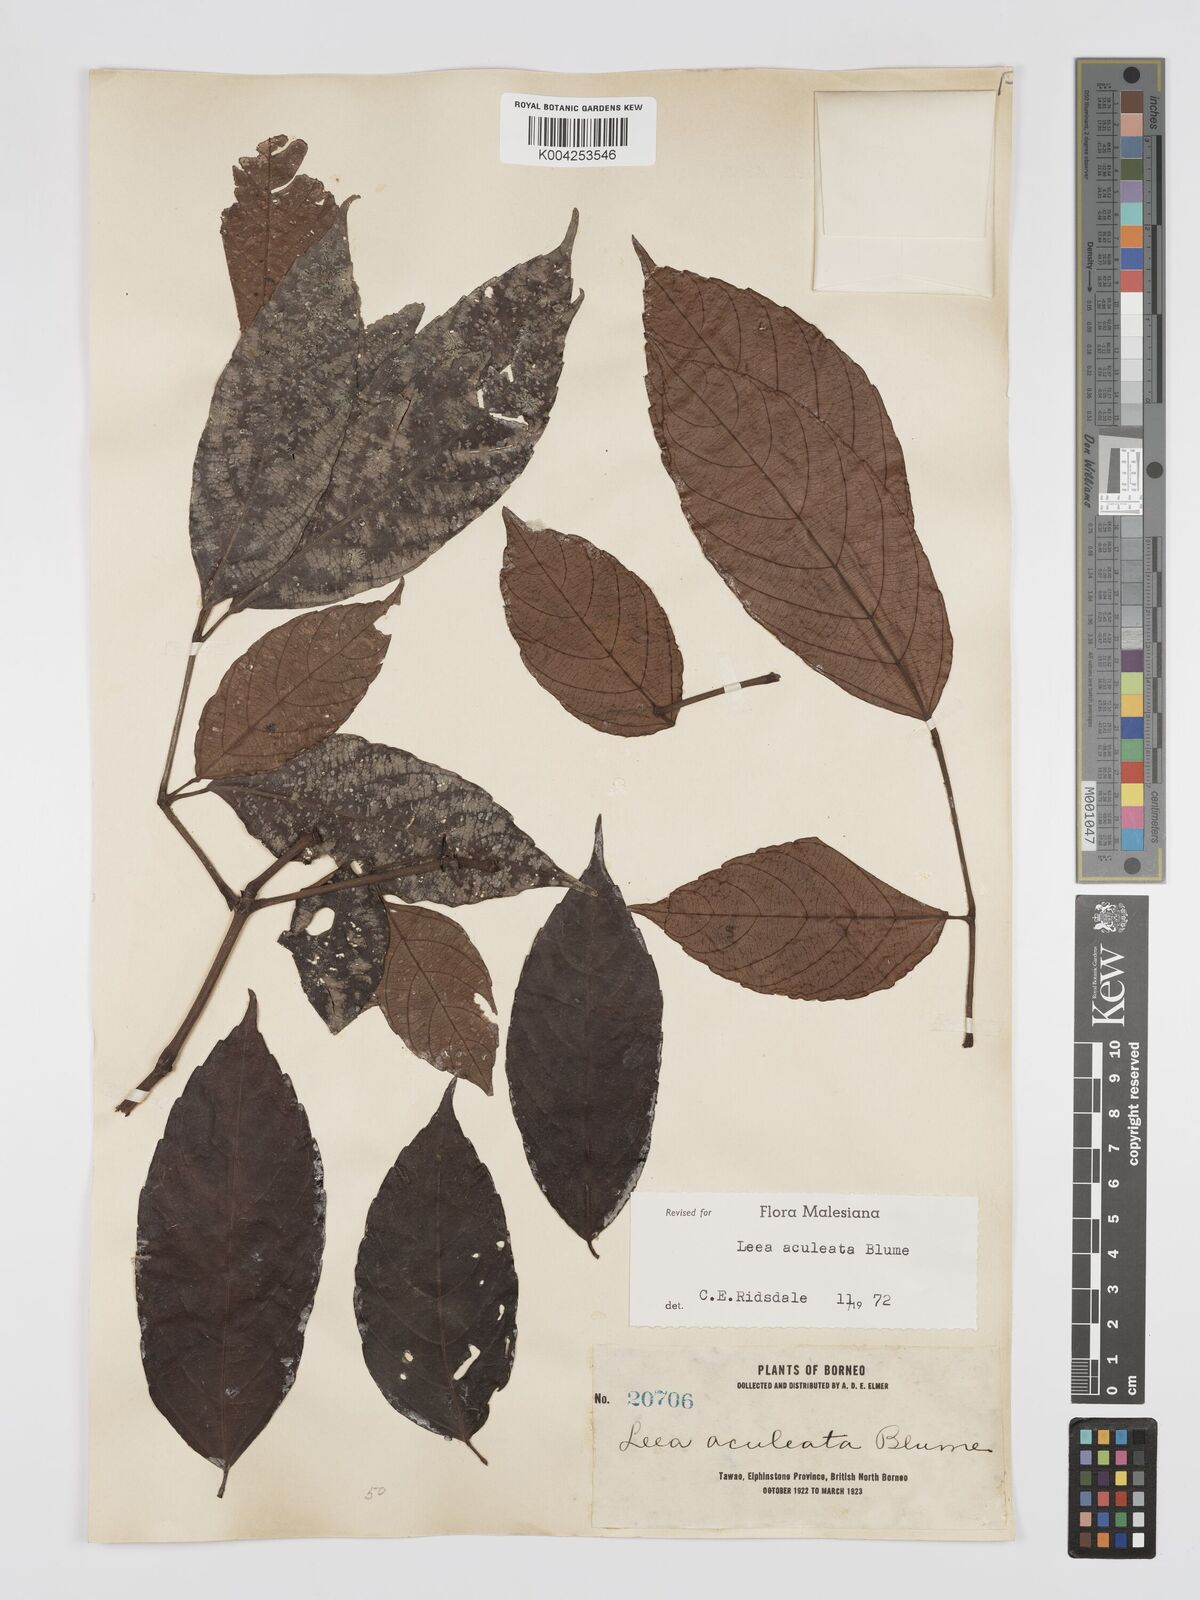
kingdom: Plantae
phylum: Tracheophyta
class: Magnoliopsida
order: Vitales
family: Vitaceae
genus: Leea
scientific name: Leea aculeata
